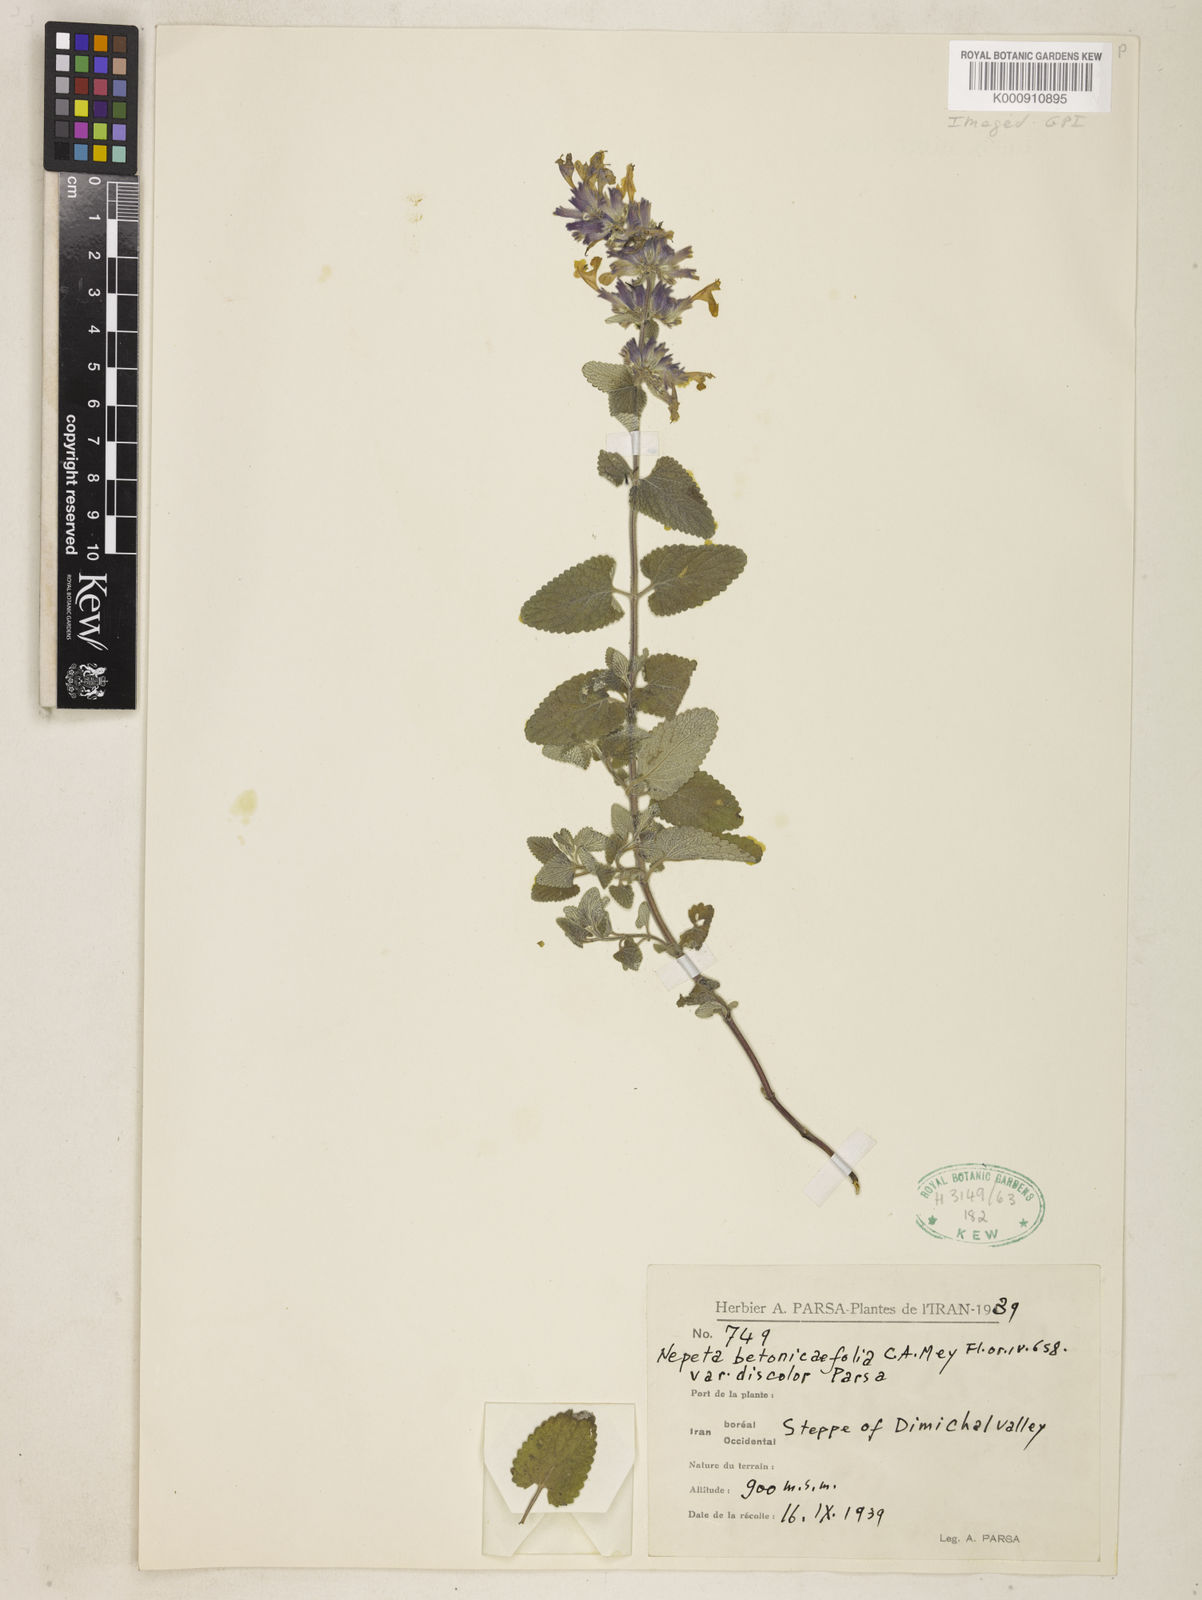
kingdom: Plantae
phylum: Tracheophyta
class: Magnoliopsida
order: Lamiales
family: Lamiaceae
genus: Nepeta
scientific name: Nepeta betonicifolia
